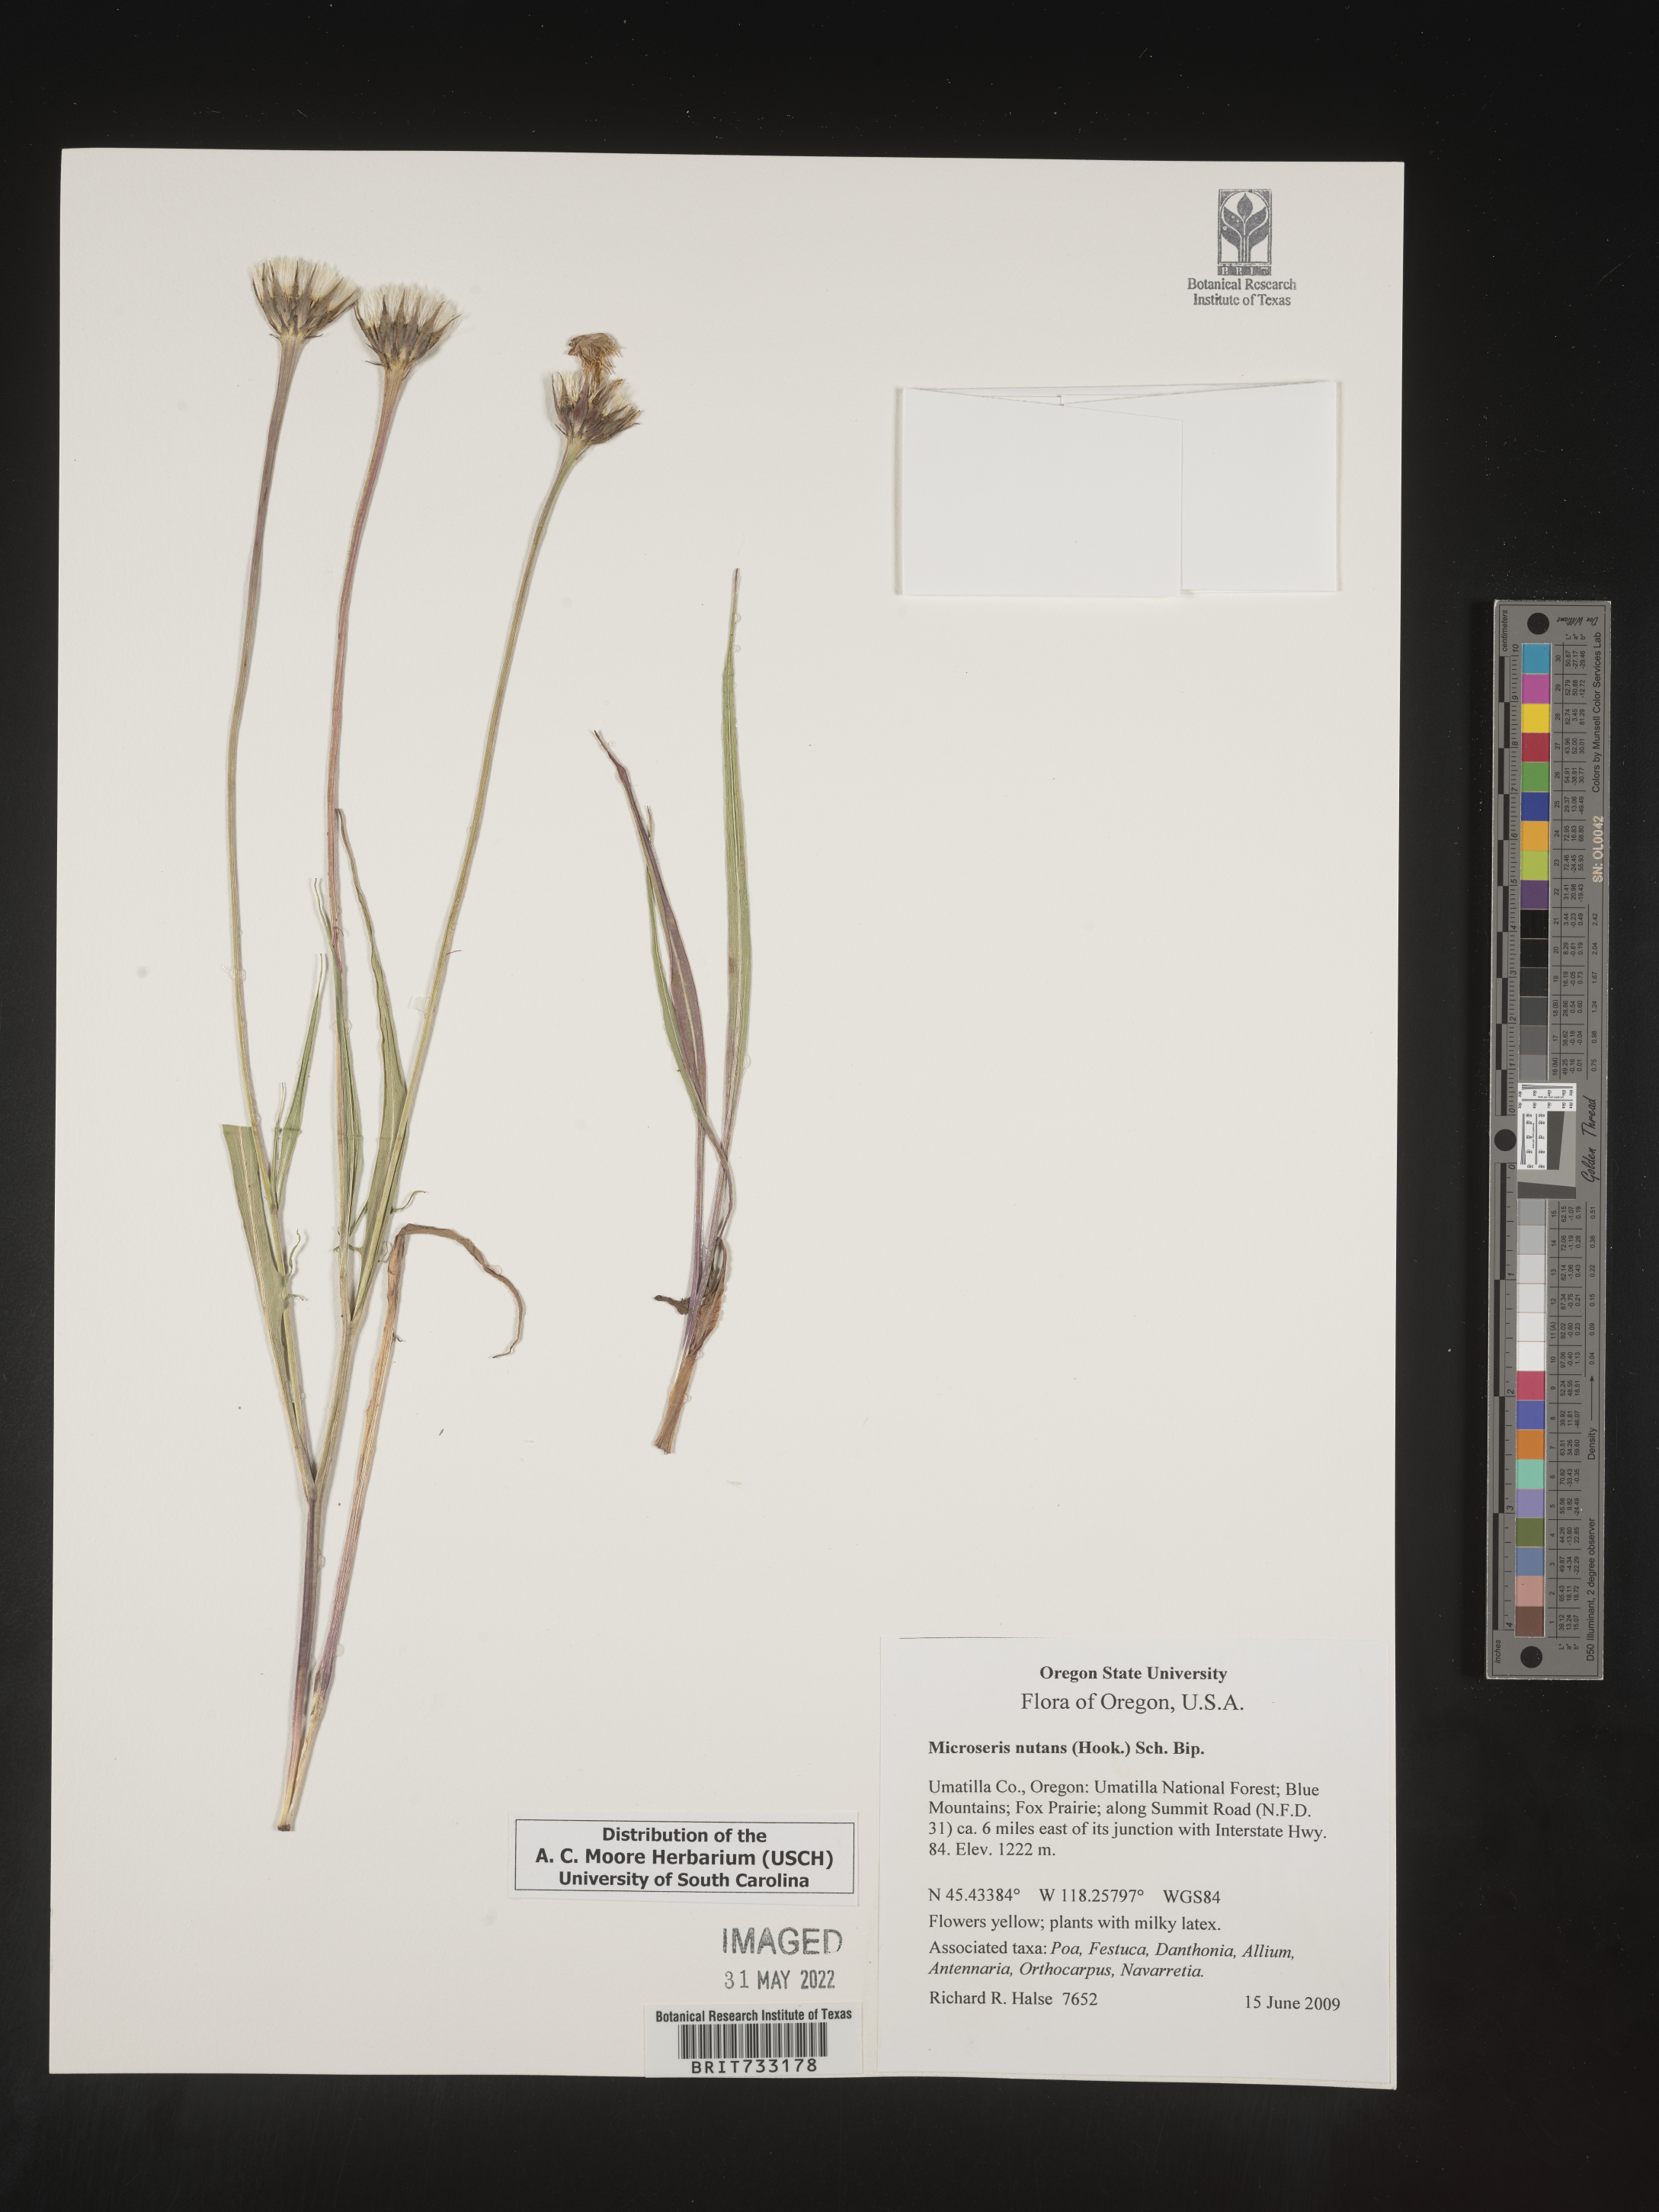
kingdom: Plantae
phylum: Tracheophyta
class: Magnoliopsida
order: Asterales
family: Asteraceae
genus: Microseris
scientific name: Microseris nutans
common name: Nodding microseris
